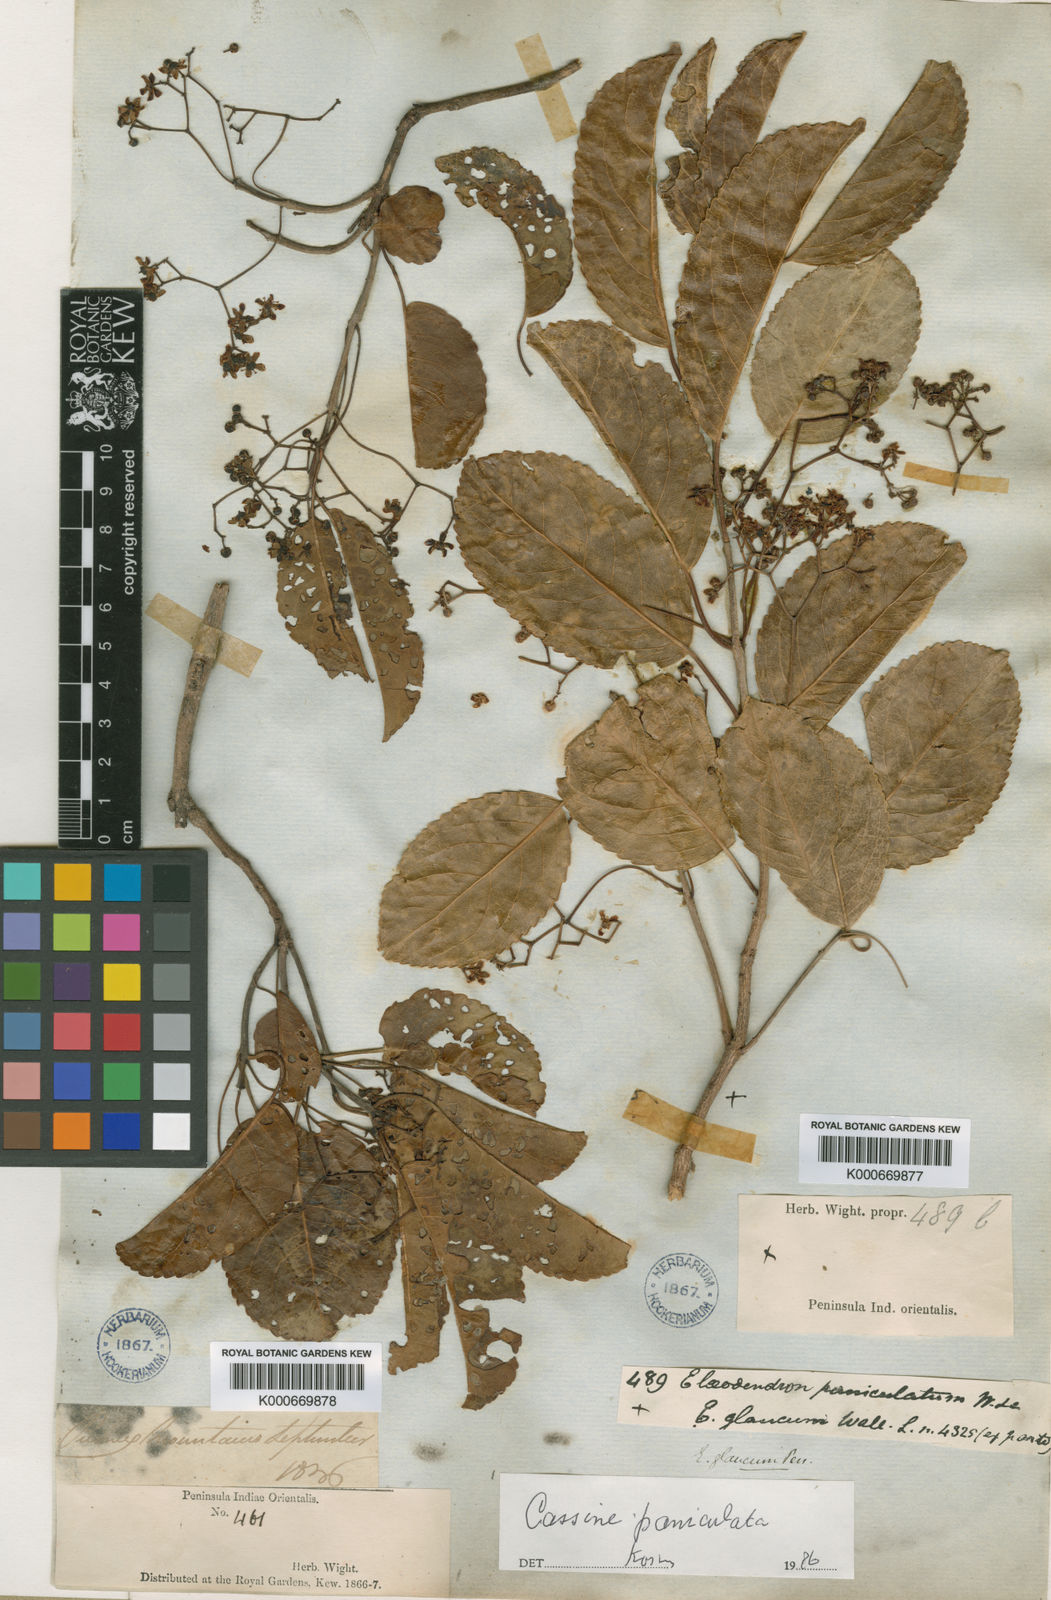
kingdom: Plantae
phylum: Tracheophyta
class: Magnoliopsida
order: Celastrales
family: Celastraceae
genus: Elaeodendron
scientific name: Elaeodendron glaucum
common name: Ceylon-tea
